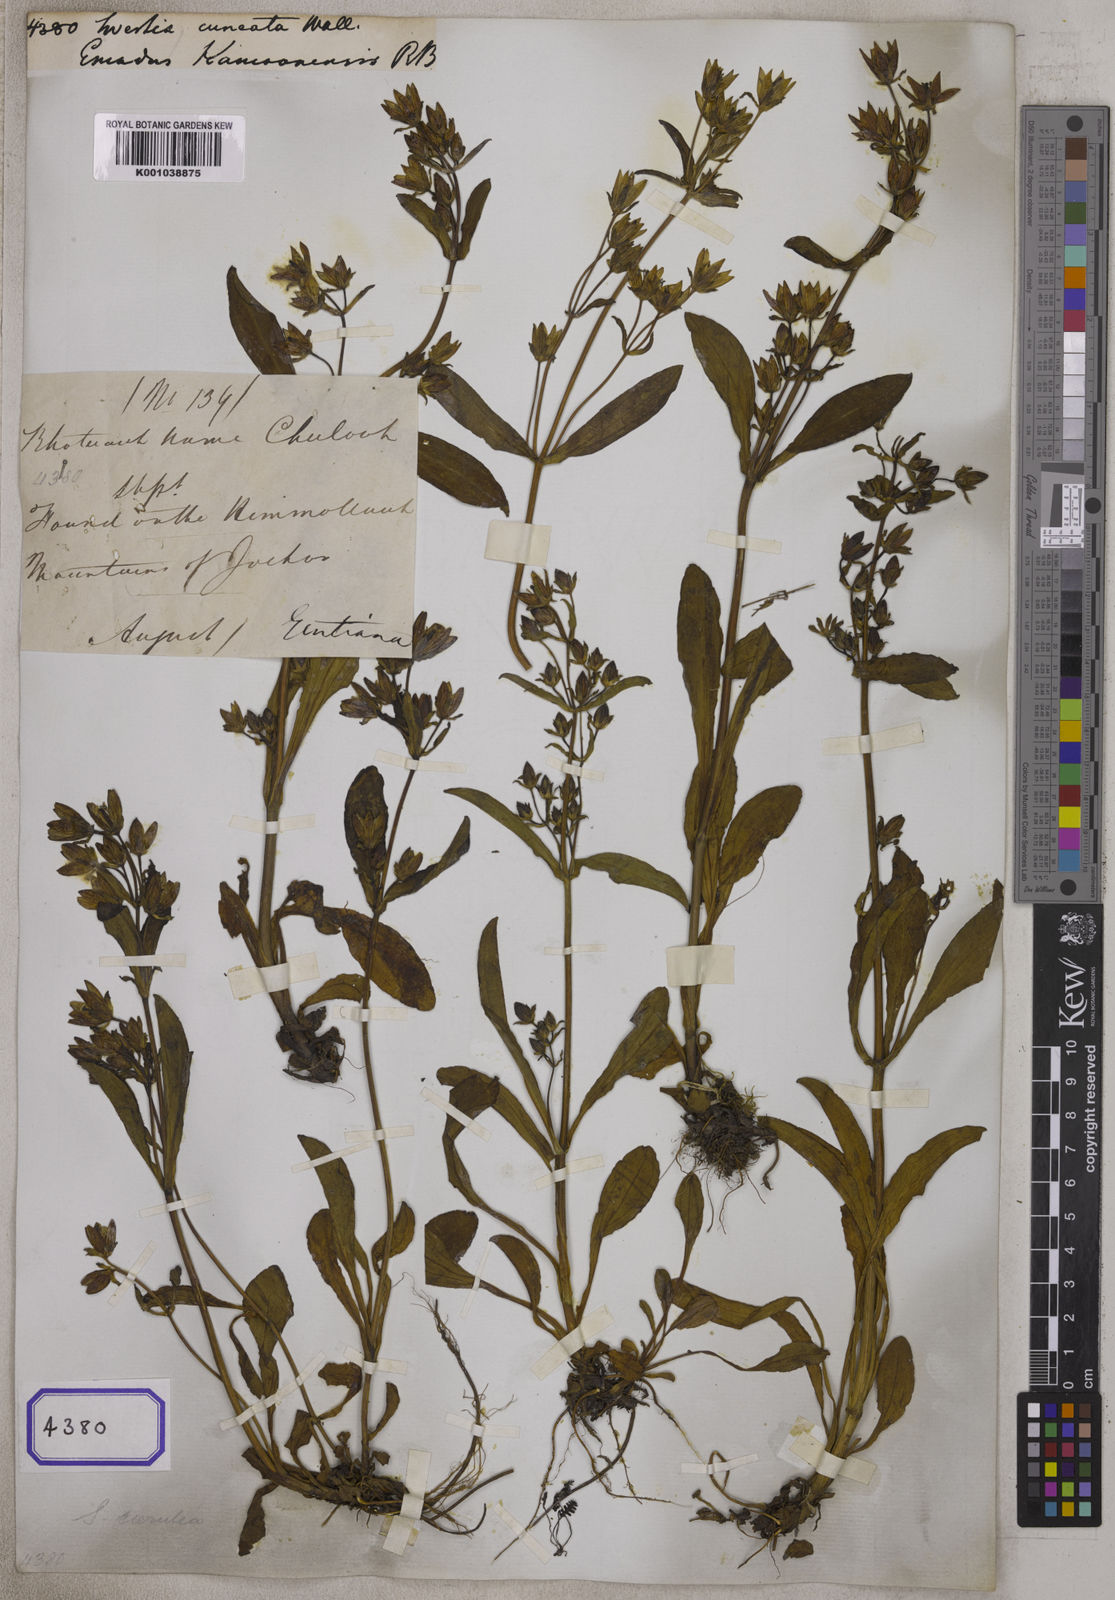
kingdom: Plantae
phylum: Tracheophyta
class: Magnoliopsida
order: Gentianales
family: Gentianaceae
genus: Swertia
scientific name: Swertia
